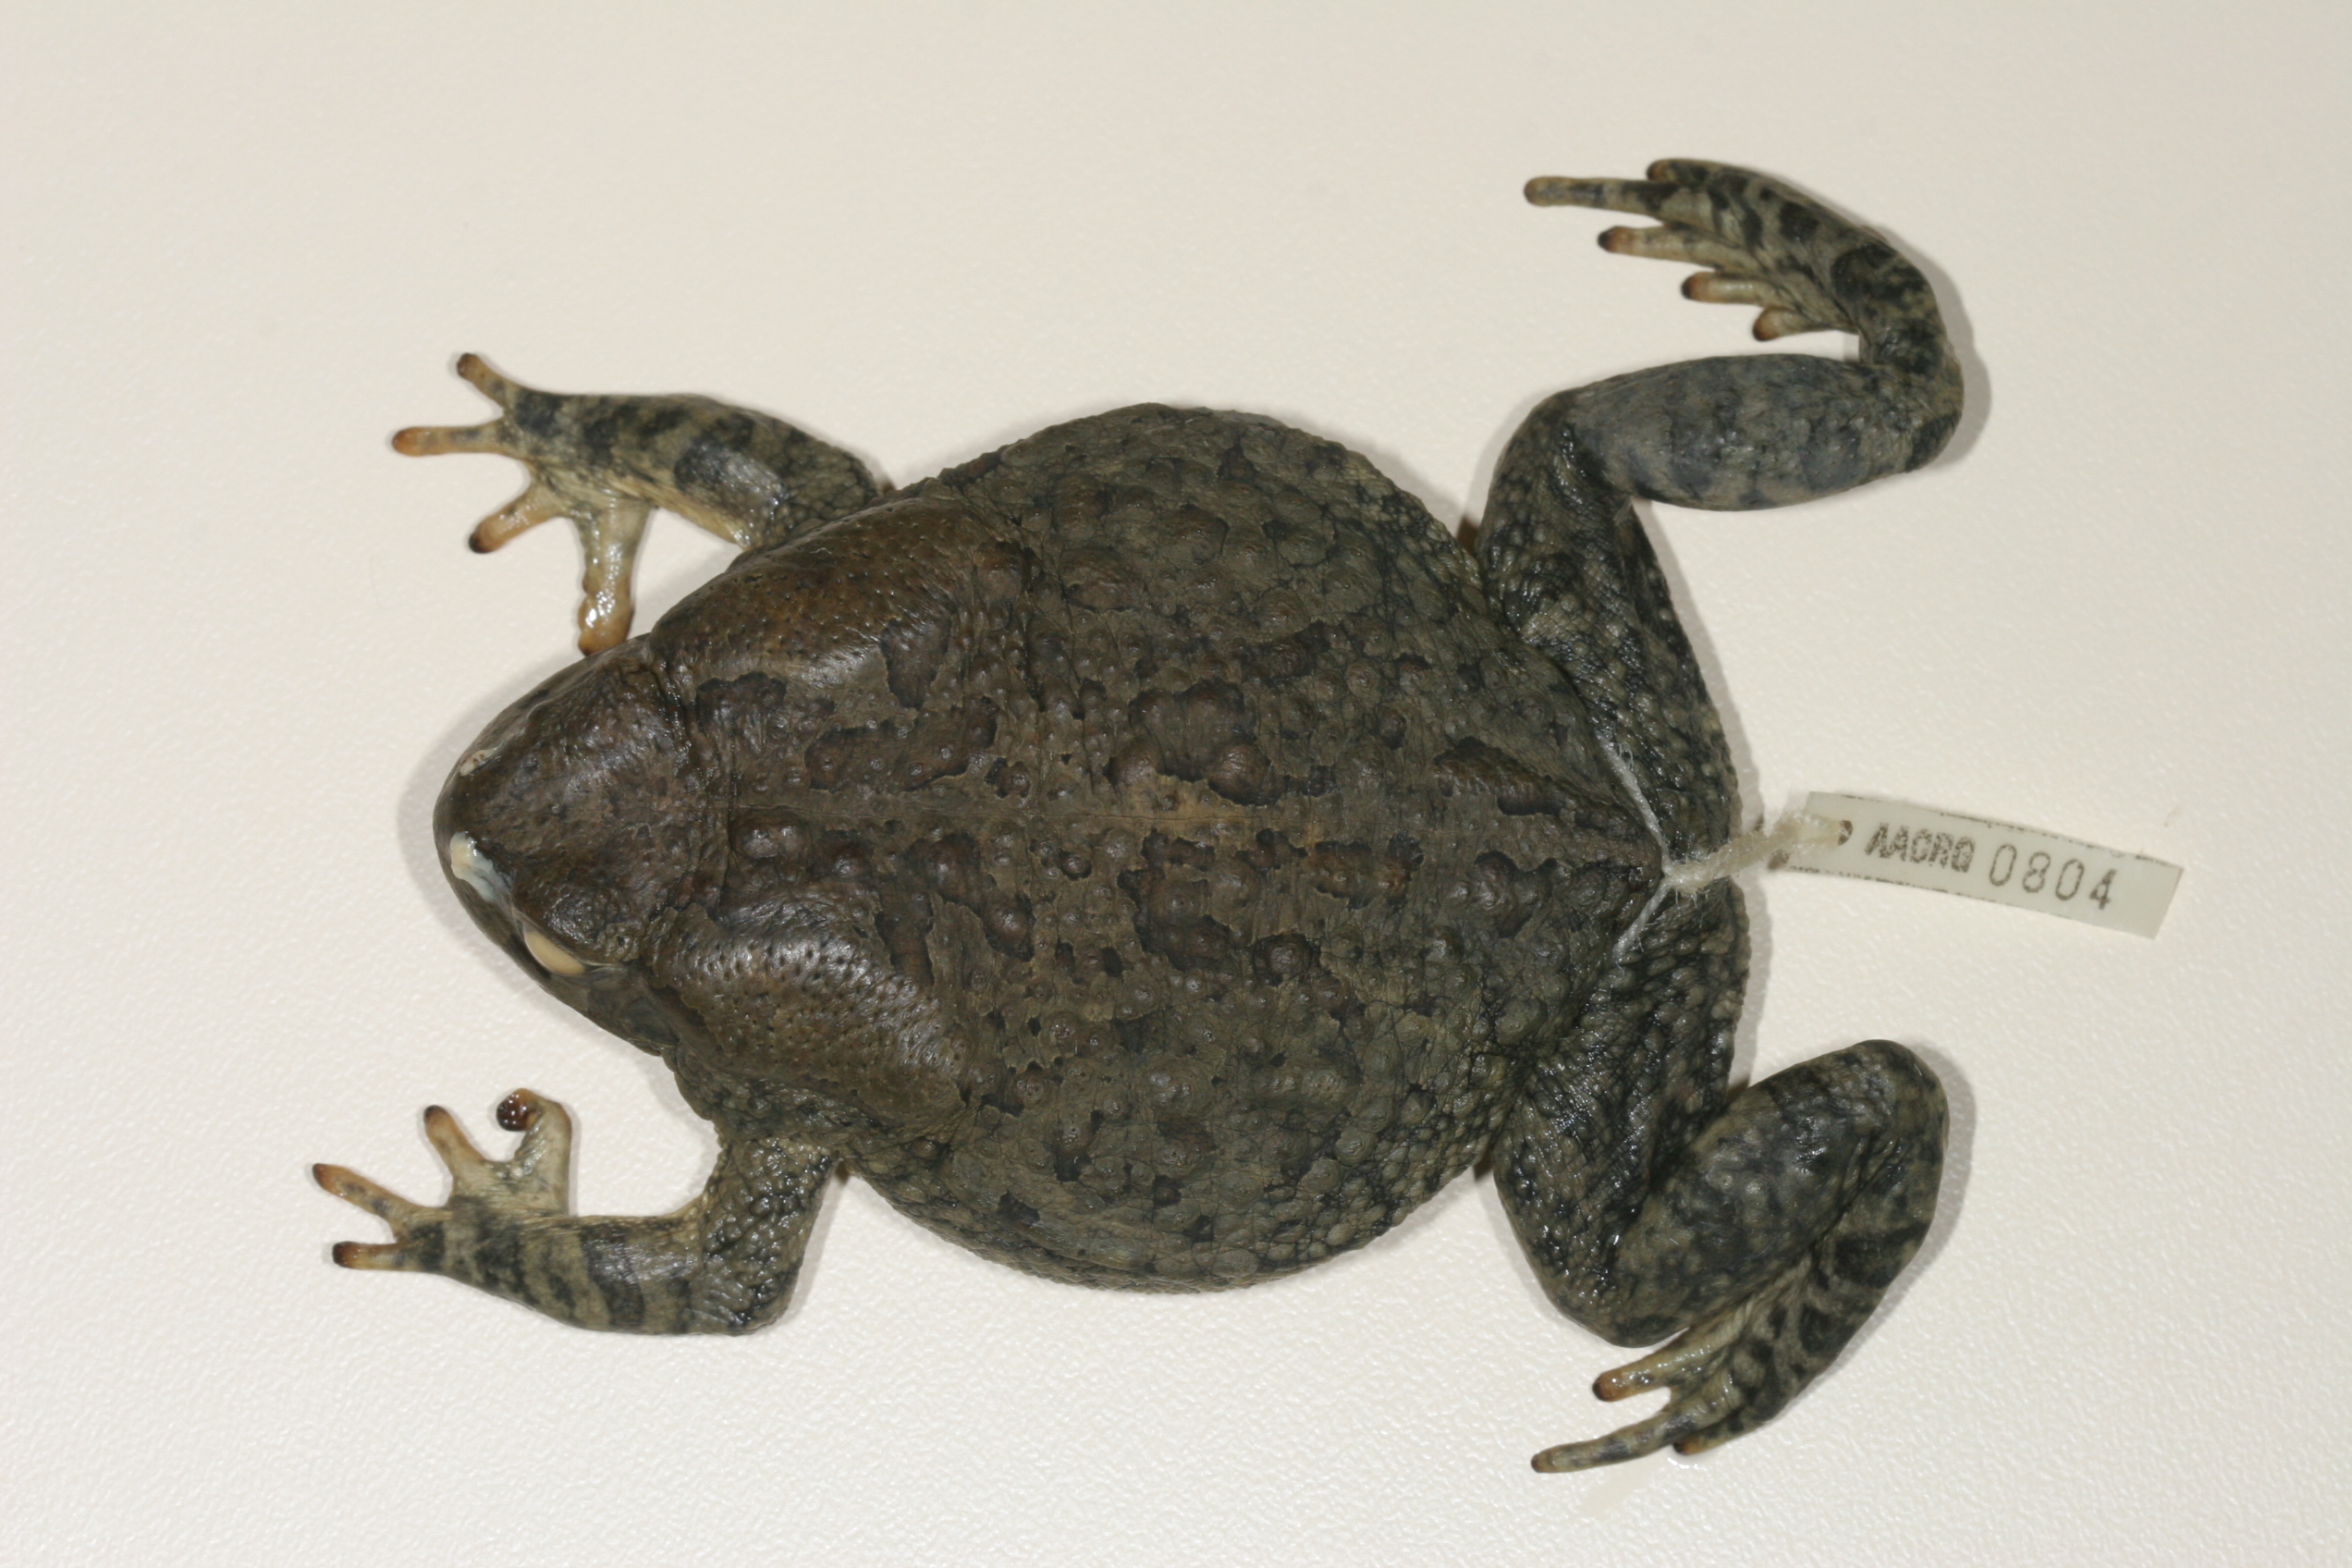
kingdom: Animalia
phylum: Chordata
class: Amphibia
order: Anura
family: Bufonidae
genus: Sclerophrys
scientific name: Sclerophrys poweri
